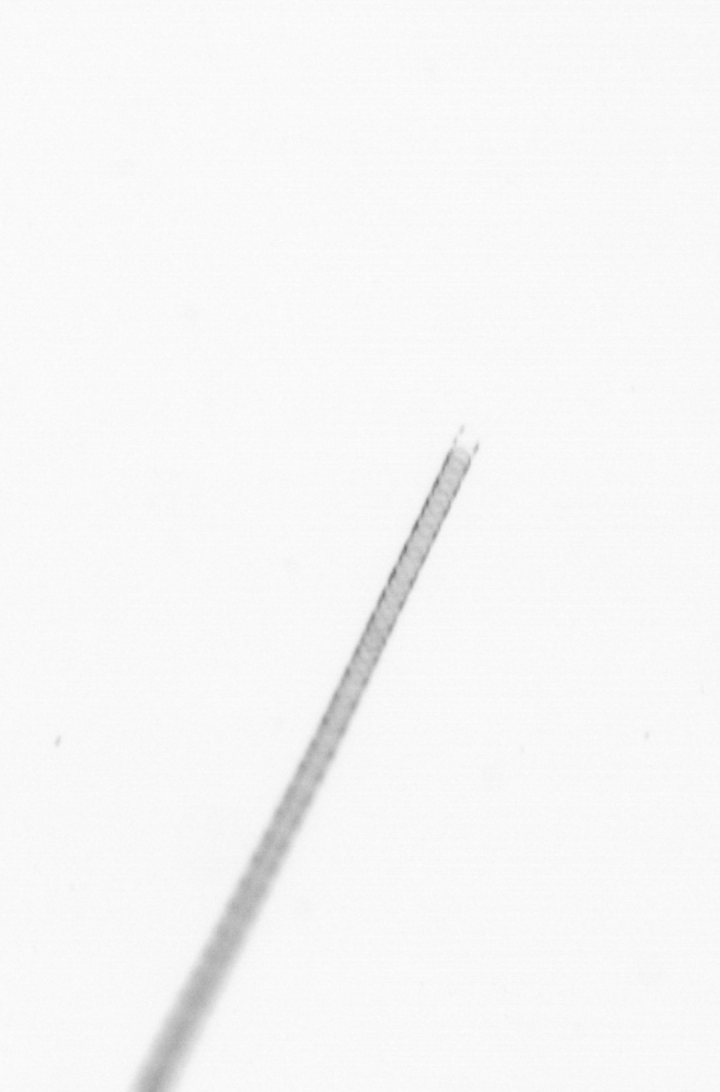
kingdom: Chromista
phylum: Ochrophyta
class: Bacillariophyceae
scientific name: Bacillariophyceae
